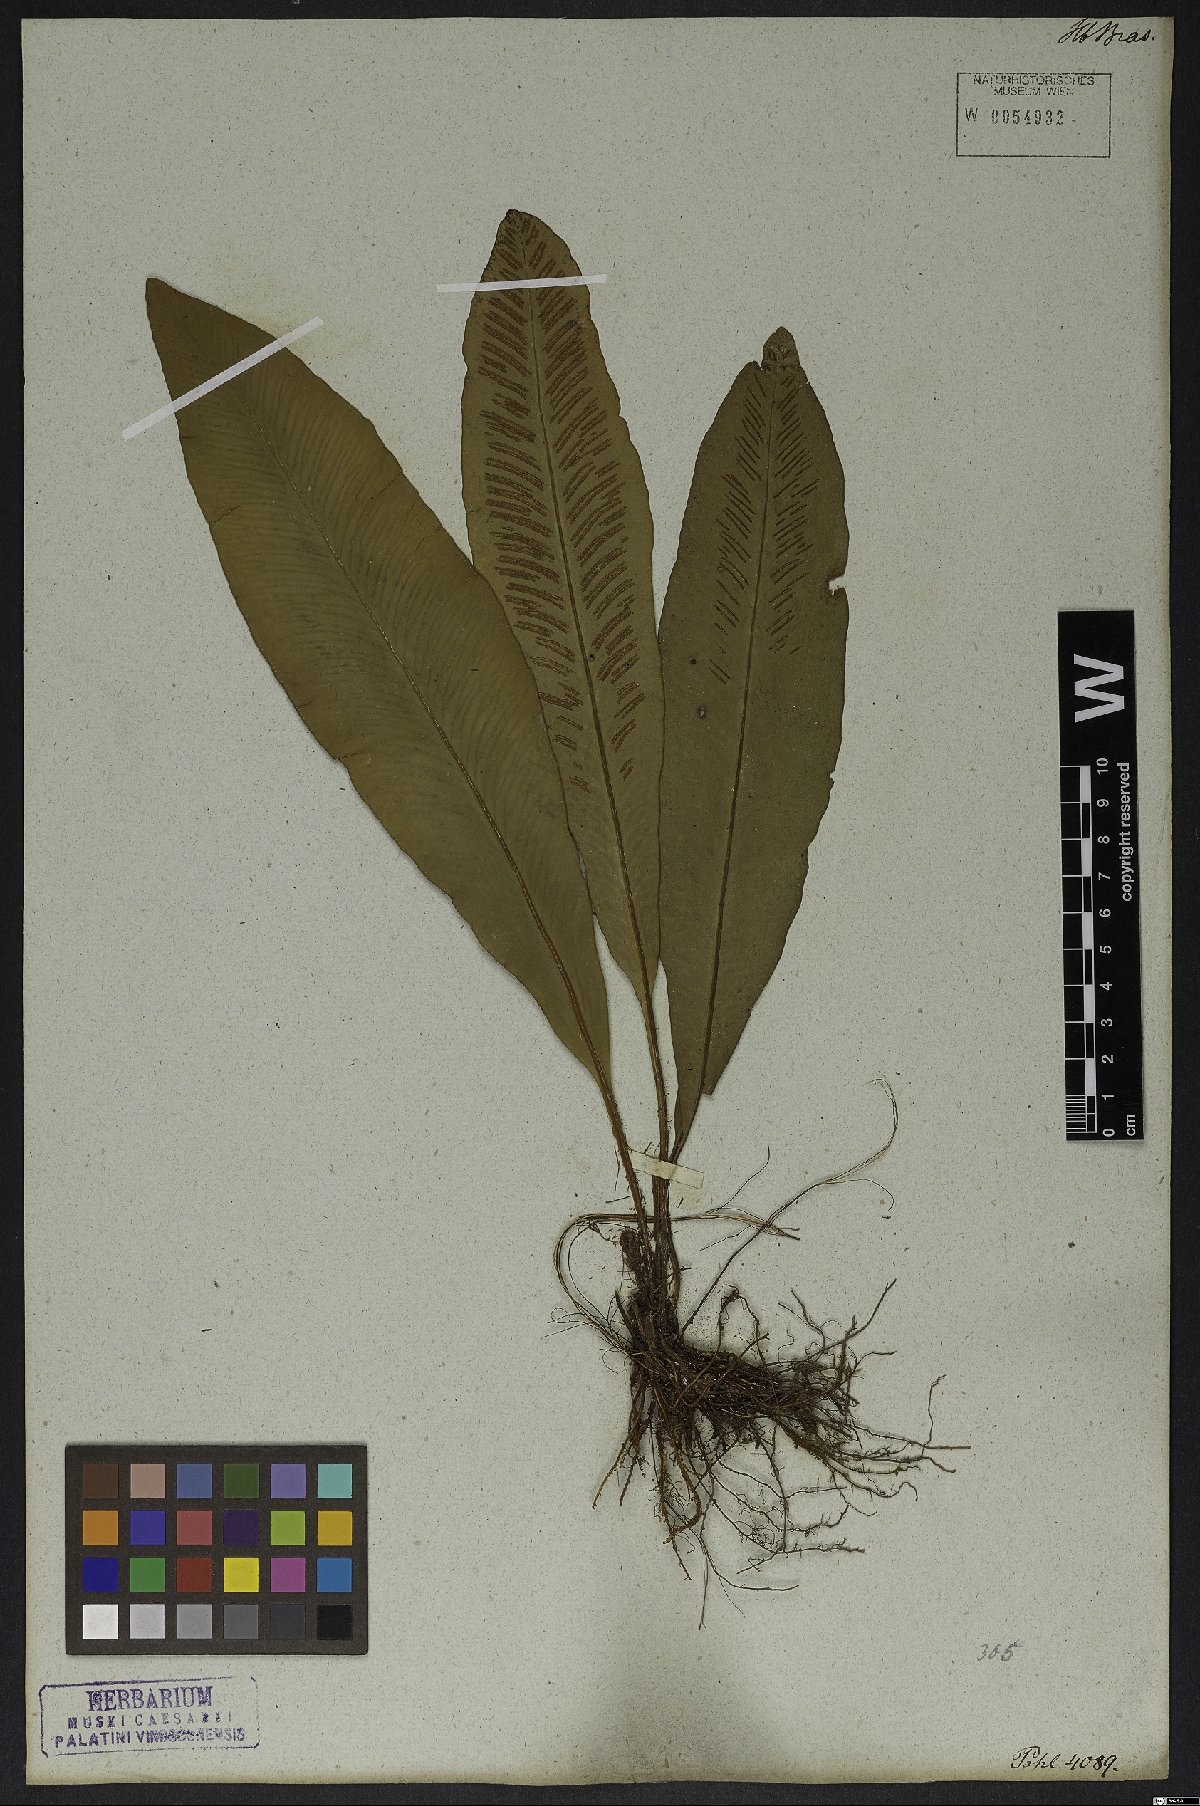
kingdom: Plantae
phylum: Tracheophyta
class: Polypodiopsida
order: Polypodiales
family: Aspleniaceae
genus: Asplenium
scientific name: Asplenium brasiliense
